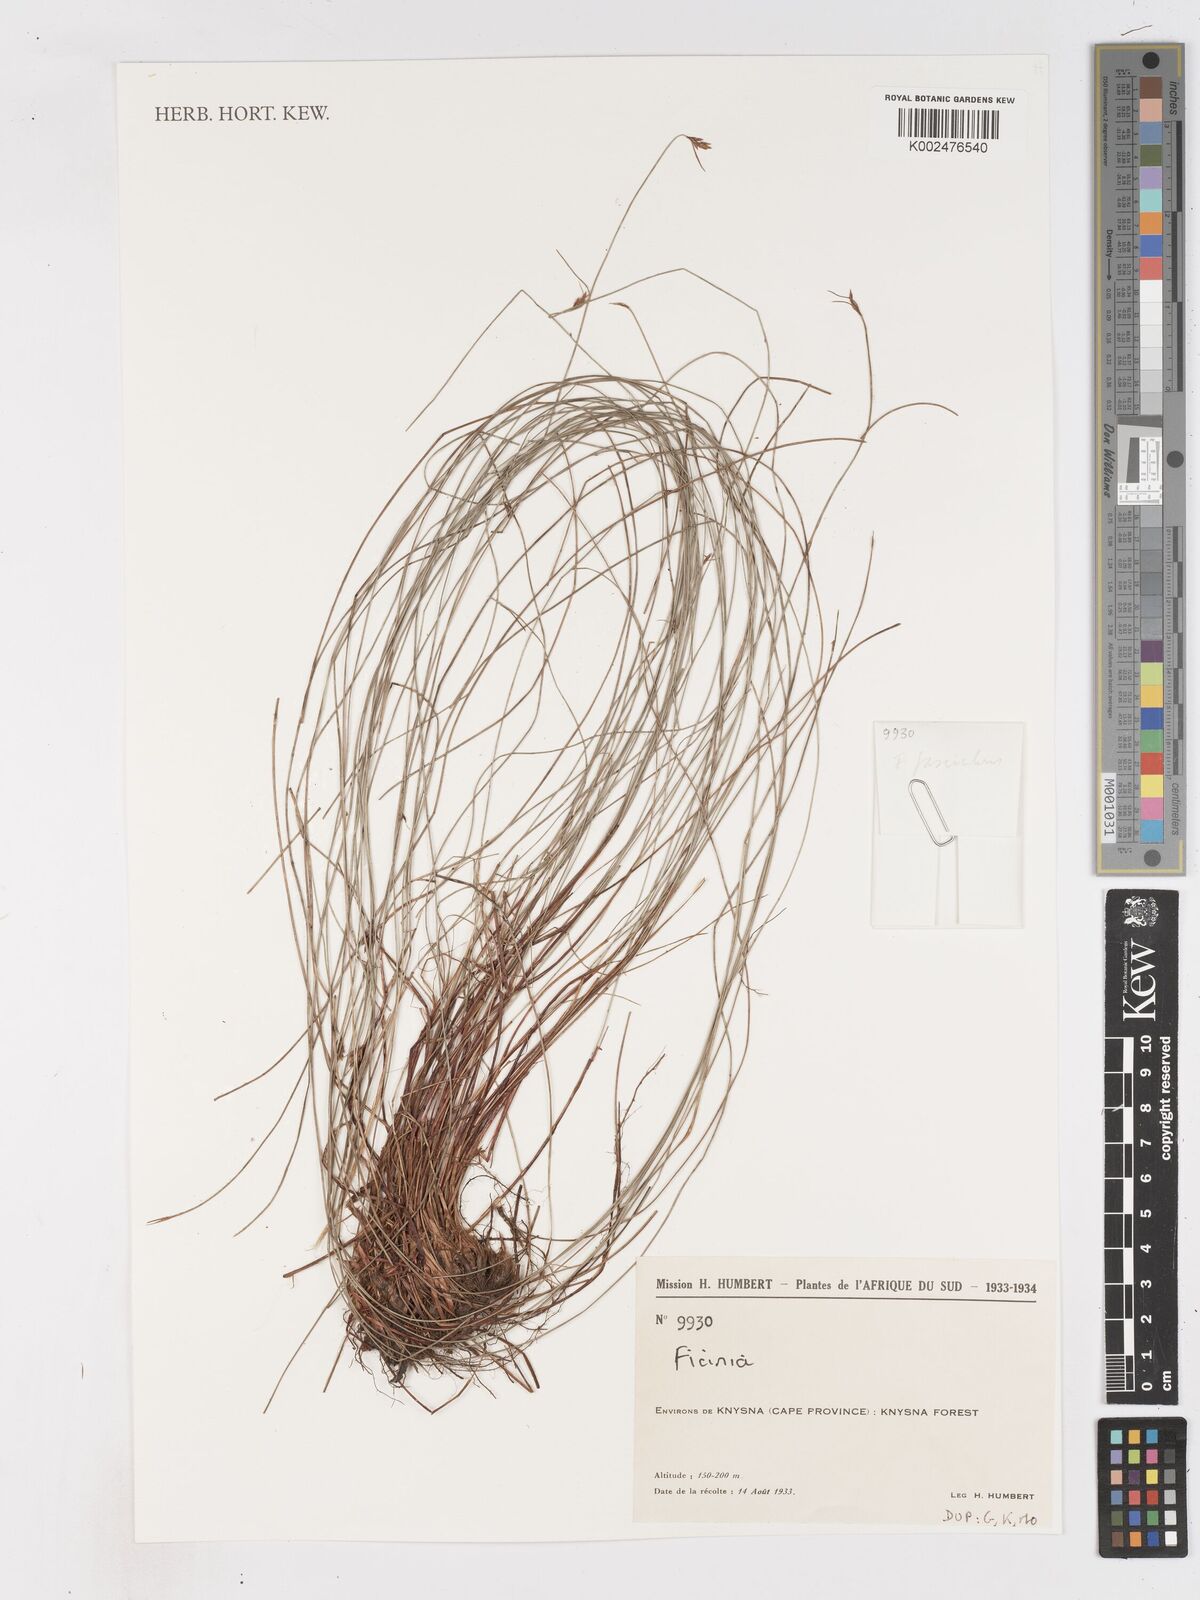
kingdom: Plantae
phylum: Tracheophyta
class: Liliopsida
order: Poales
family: Cyperaceae
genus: Ficinia
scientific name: Ficinia
